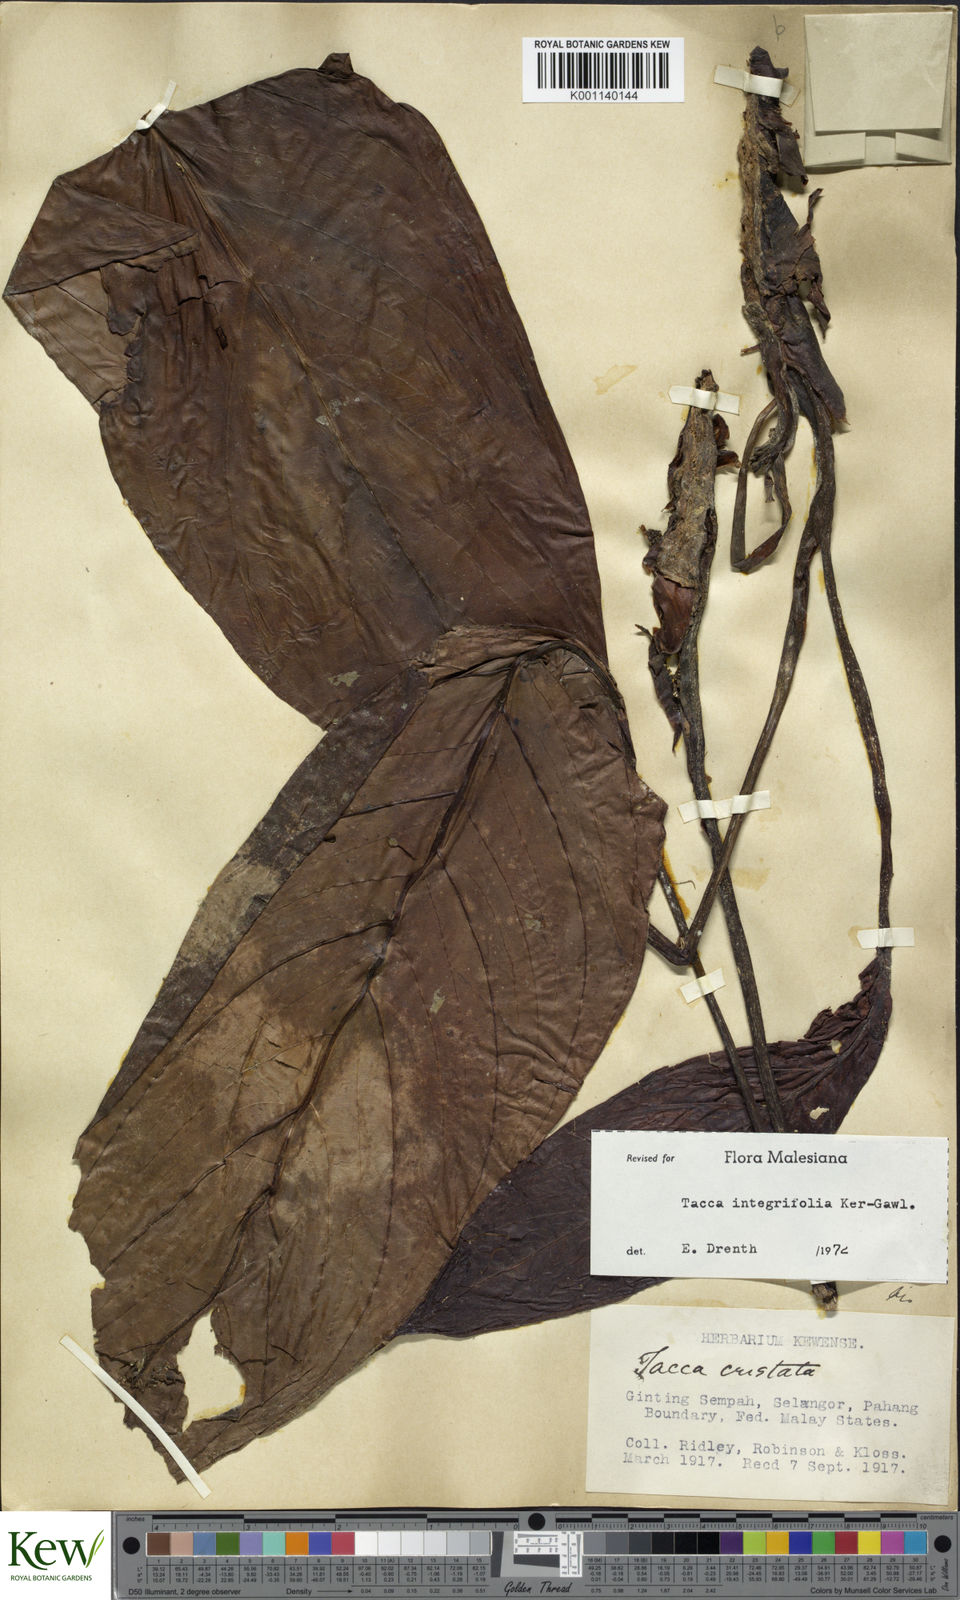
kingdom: Plantae
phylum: Tracheophyta
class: Liliopsida
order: Dioscoreales
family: Dioscoreaceae
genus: Tacca
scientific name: Tacca integrifolia
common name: Batplant
